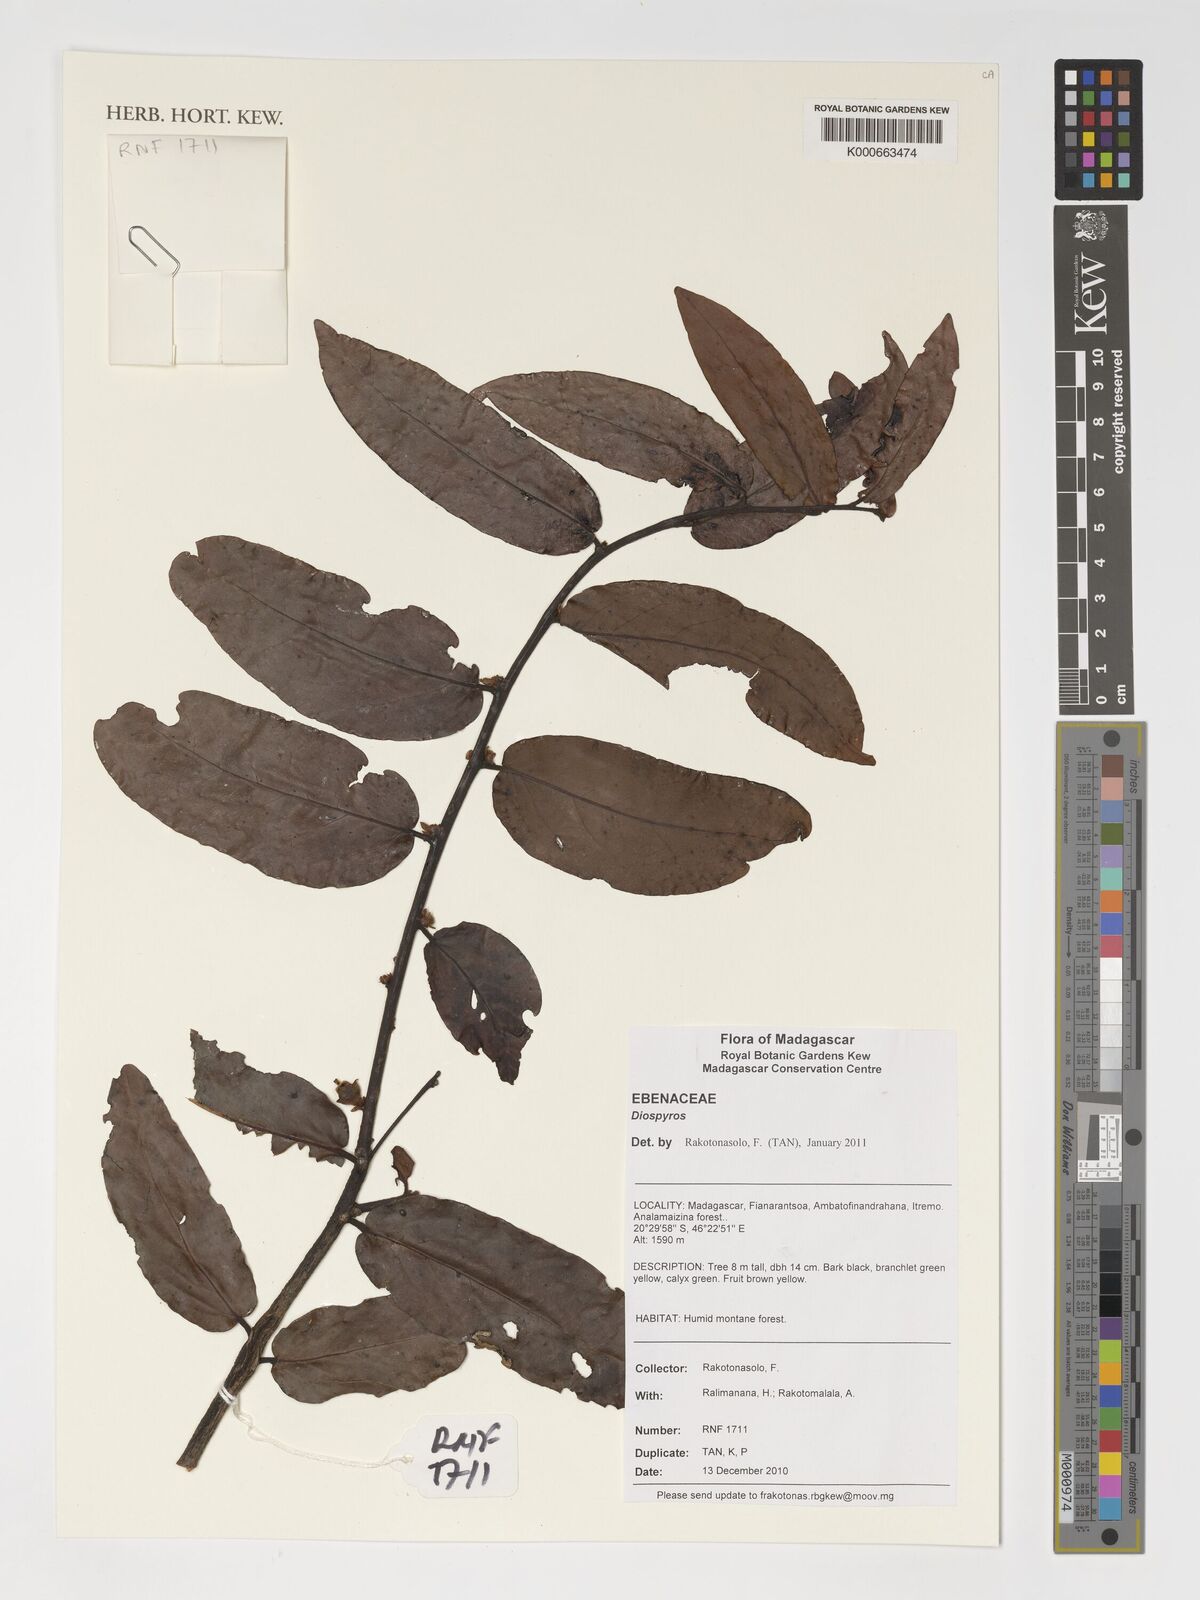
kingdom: Plantae
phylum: Tracheophyta
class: Magnoliopsida
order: Ericales
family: Ebenaceae
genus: Diospyros
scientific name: Diospyros
